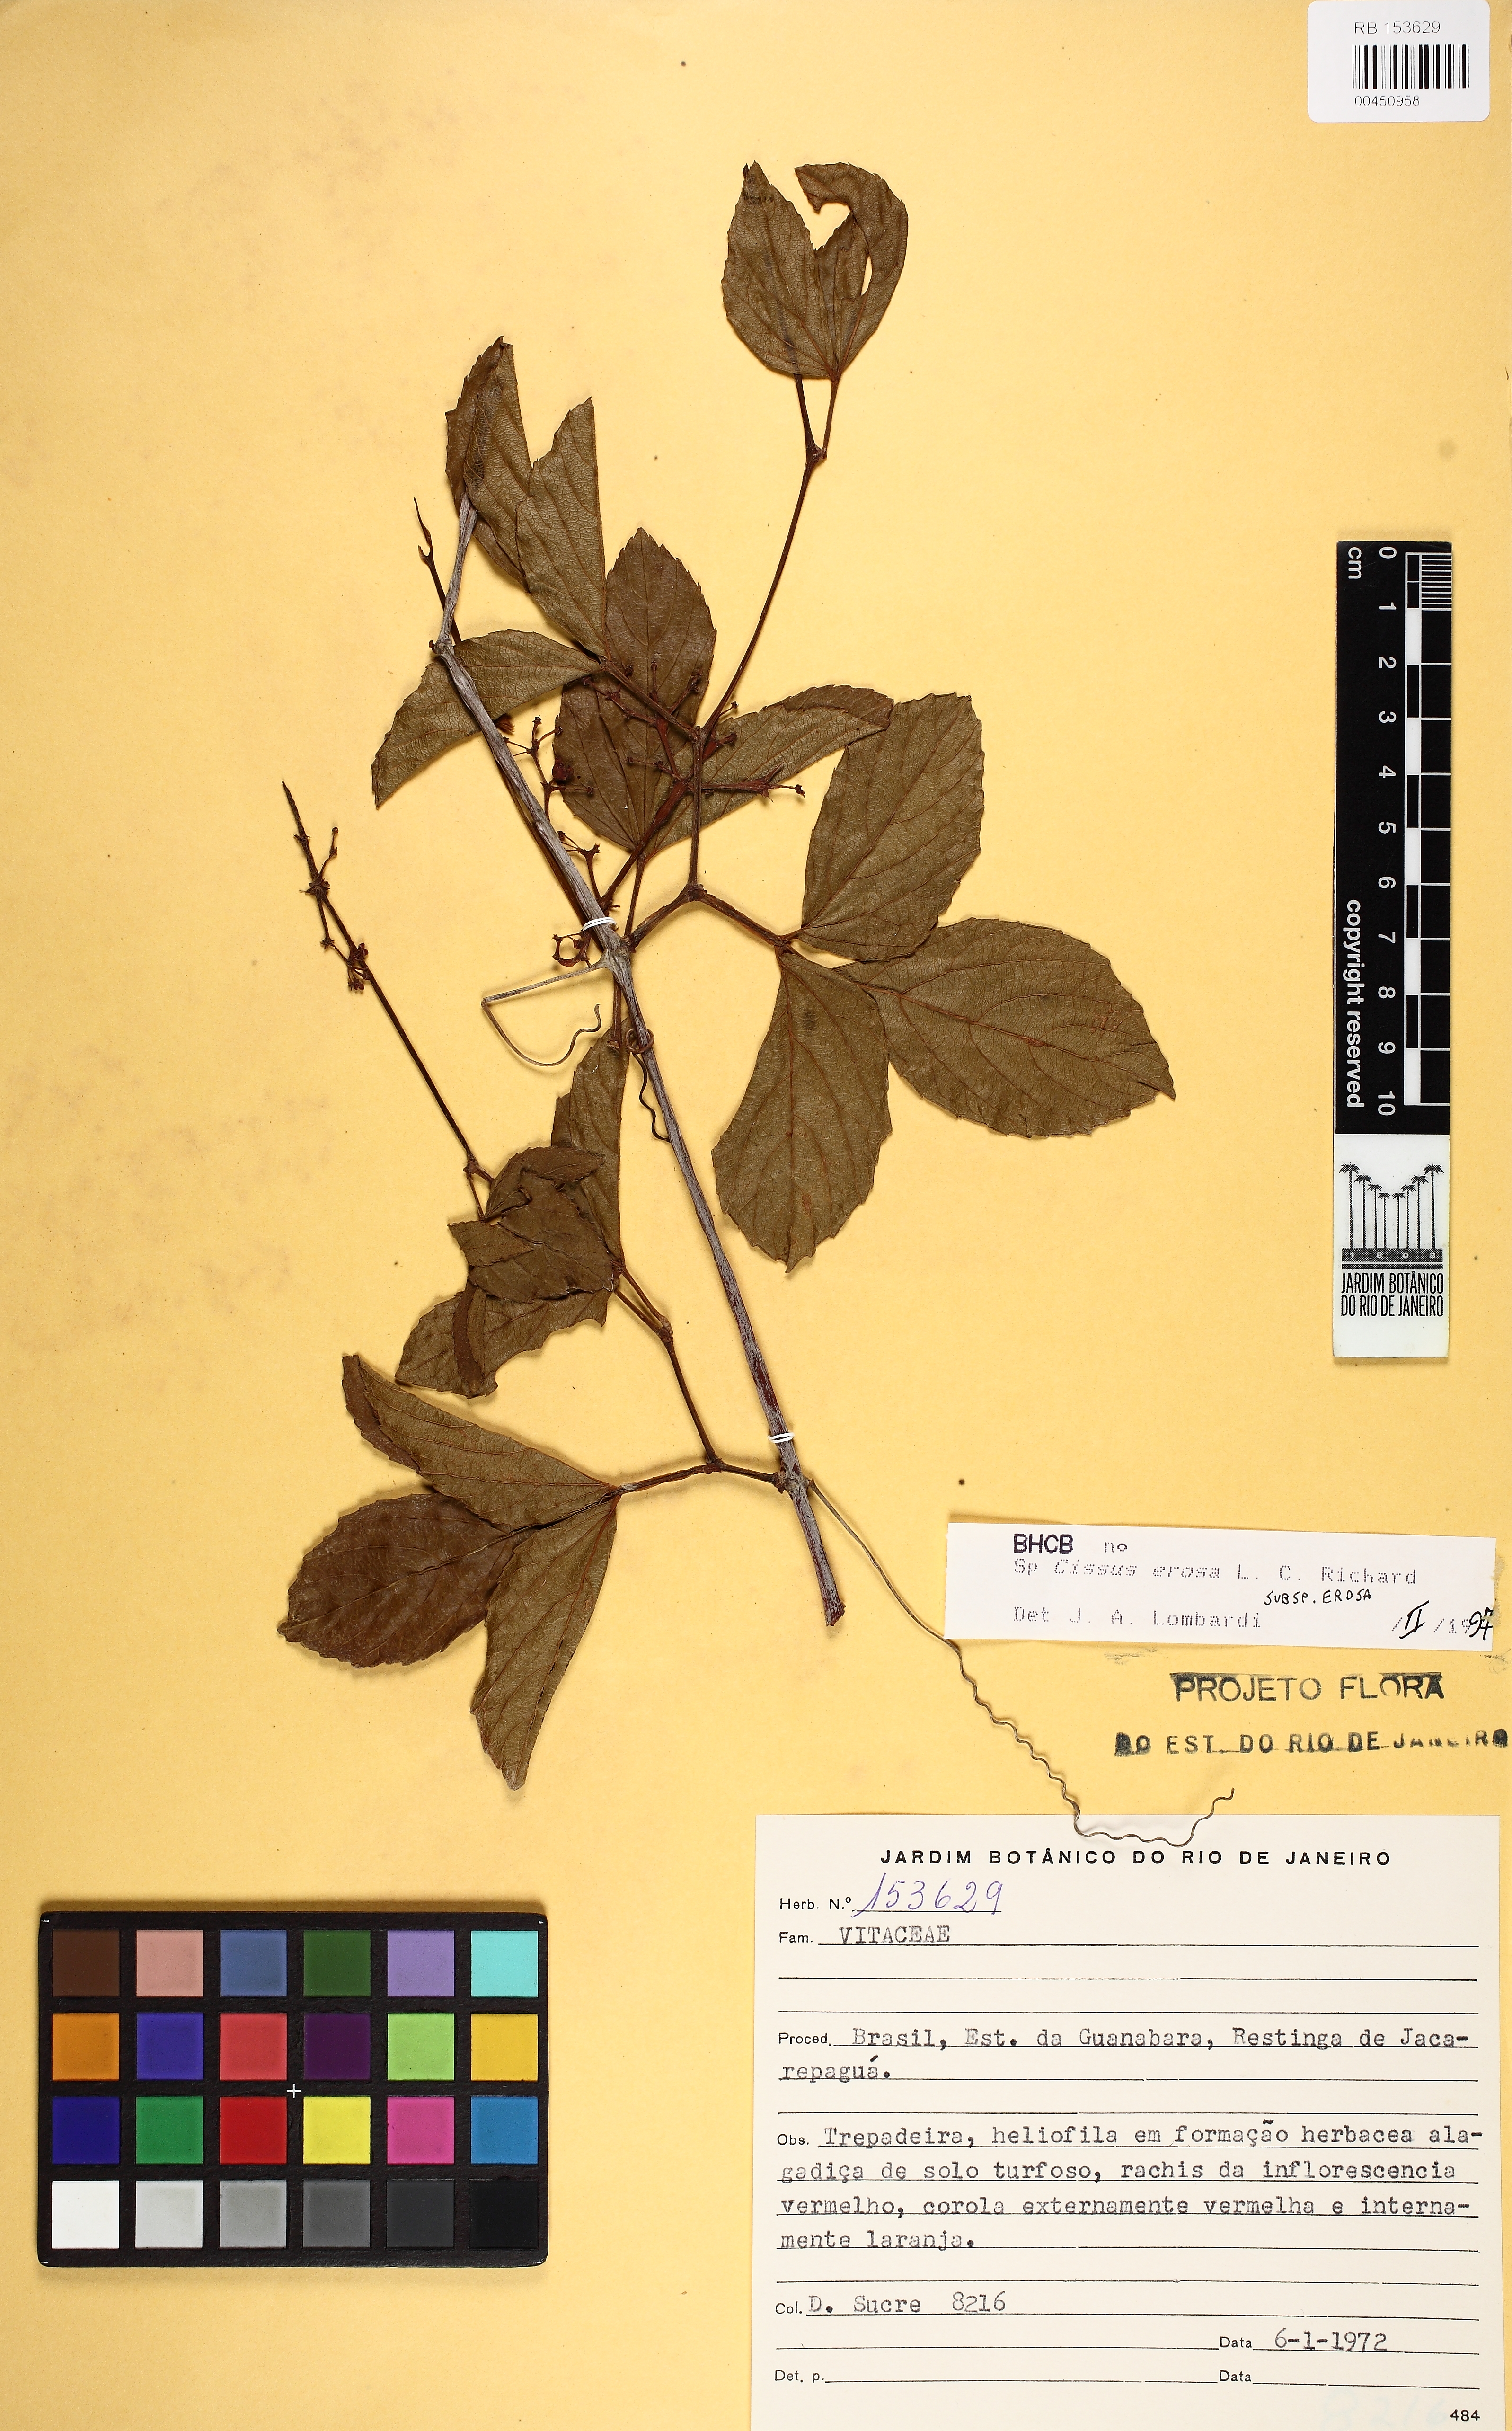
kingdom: Plantae
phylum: Tracheophyta
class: Magnoliopsida
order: Vitales
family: Vitaceae
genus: Cissus
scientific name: Cissus erosa
